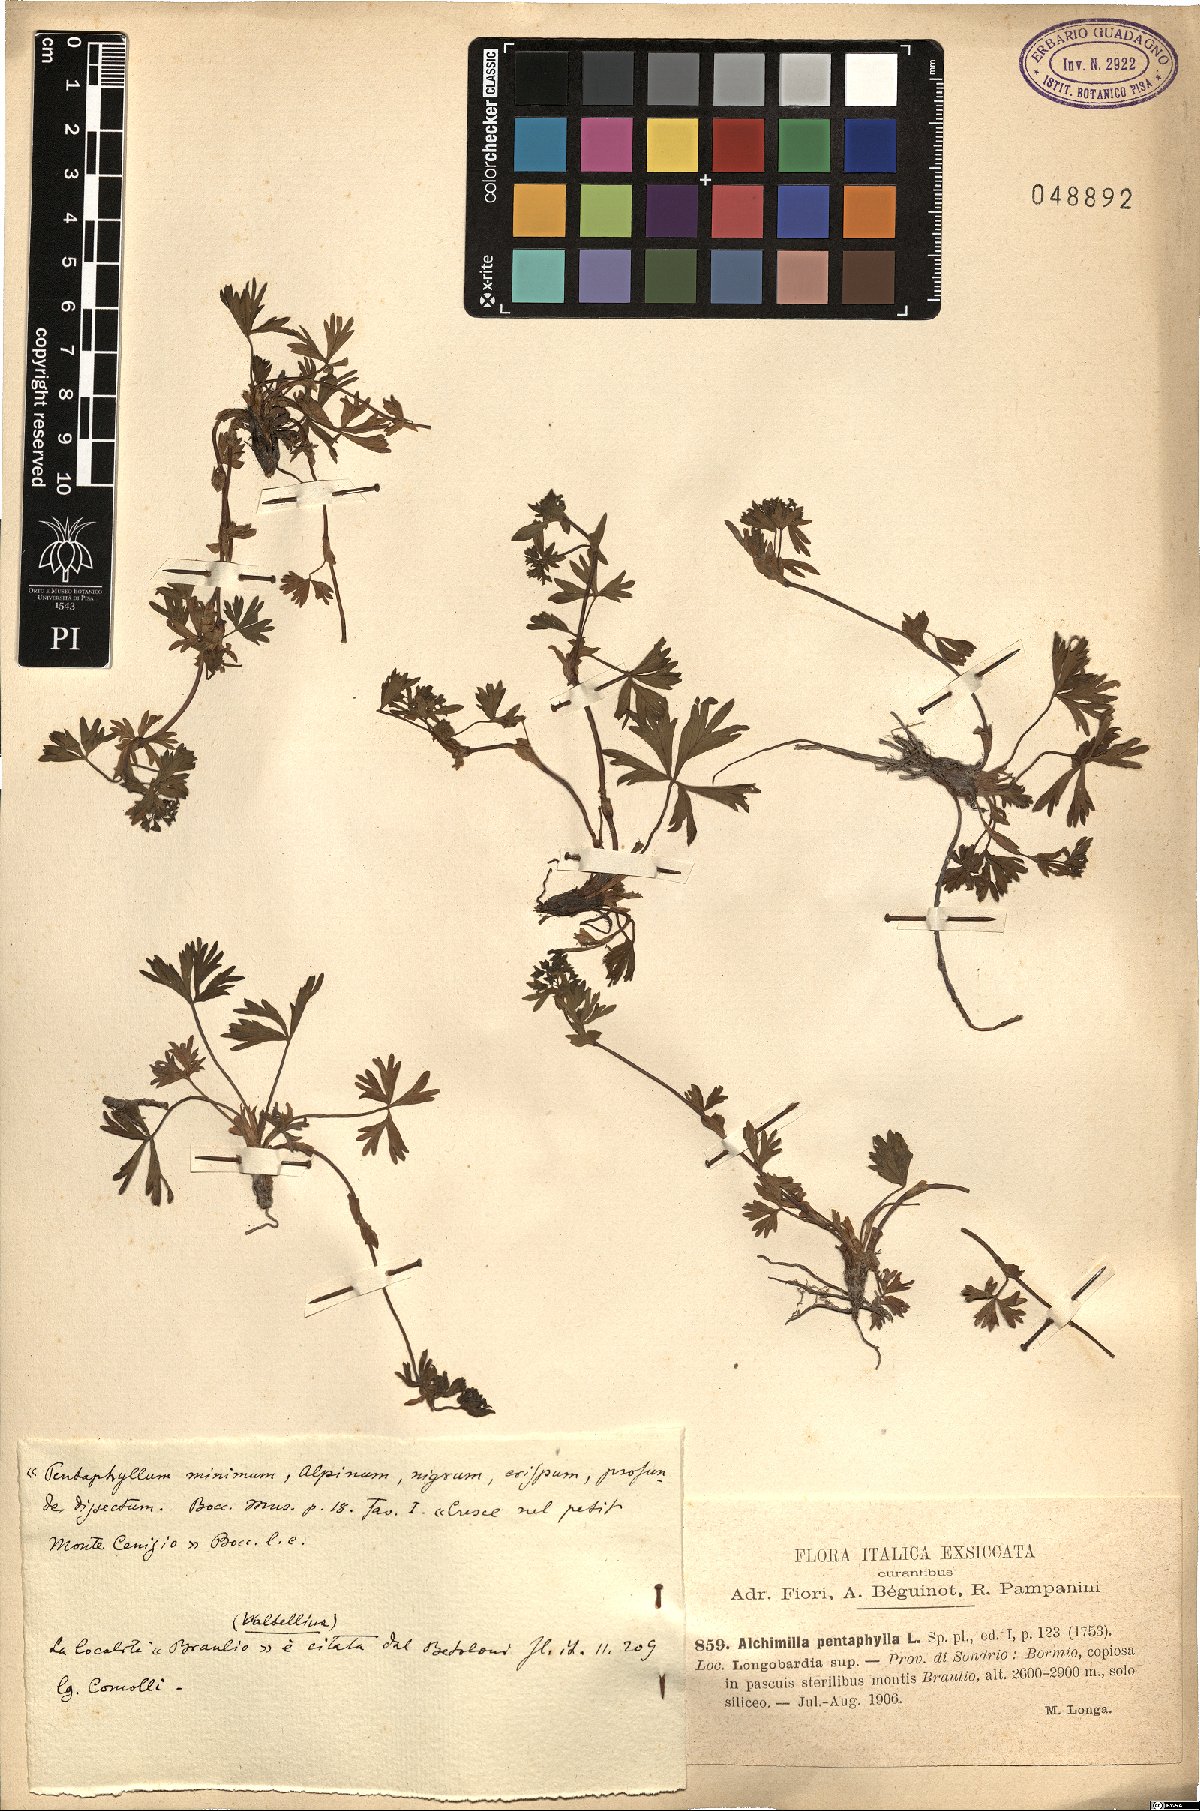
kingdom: Plantae
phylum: Tracheophyta
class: Magnoliopsida
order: Rosales
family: Rosaceae
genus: Alchemilla
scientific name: Alchemilla pentaphyllea
